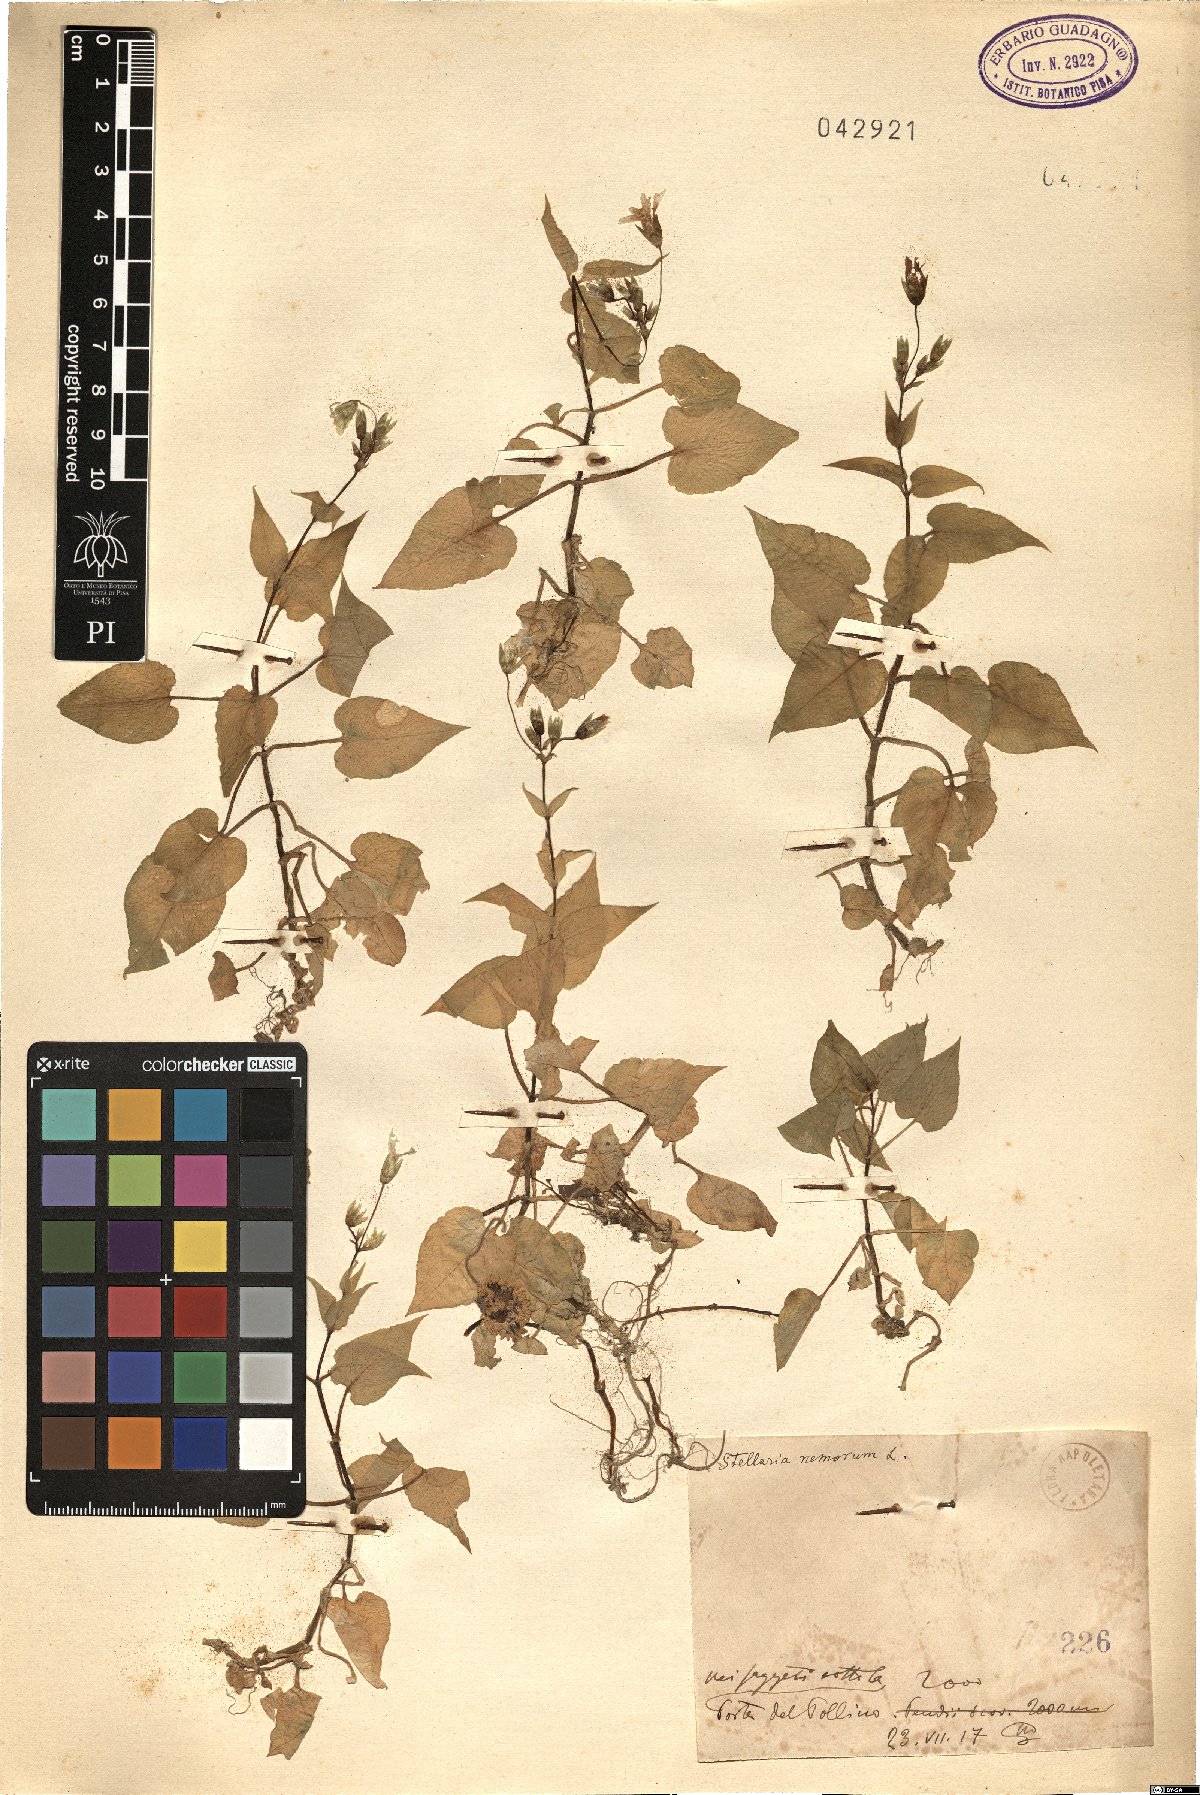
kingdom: Plantae
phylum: Tracheophyta
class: Magnoliopsida
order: Caryophyllales
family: Caryophyllaceae
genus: Stellaria
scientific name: Stellaria nemorum
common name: Wood stitchwort
